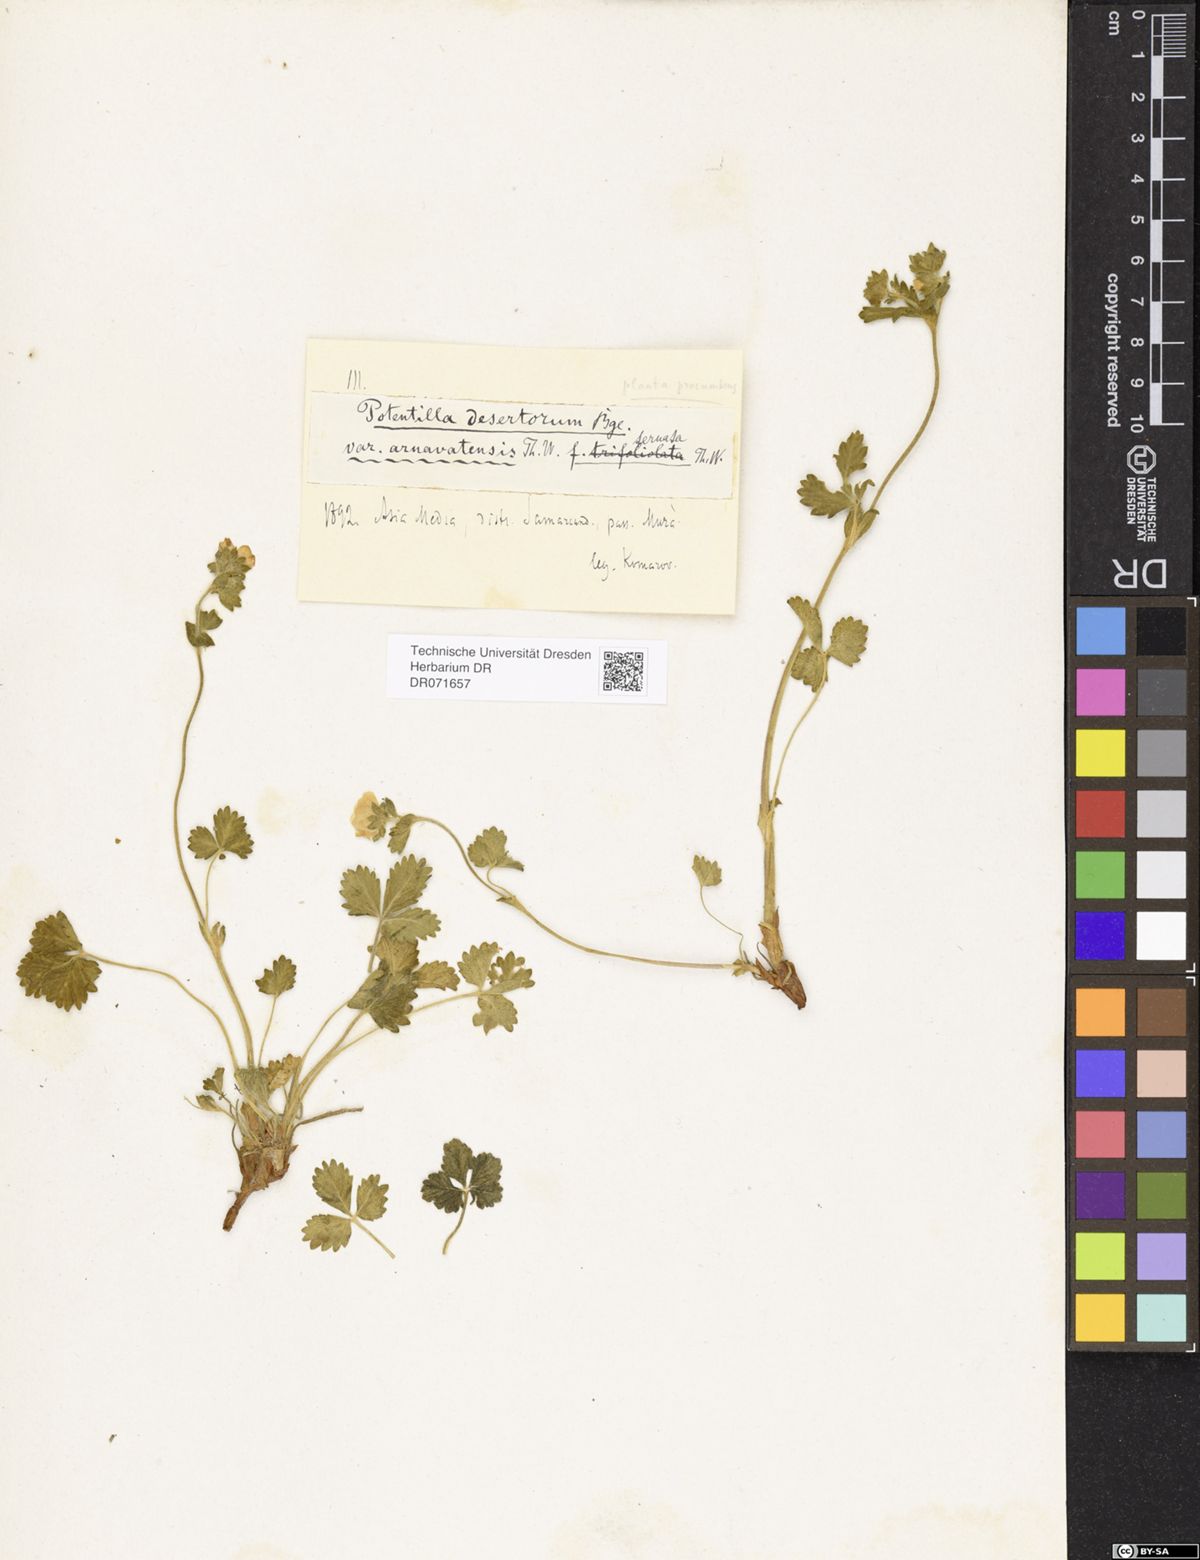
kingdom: Plantae
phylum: Tracheophyta
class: Magnoliopsida
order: Rosales
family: Rosaceae
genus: Potentilla
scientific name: Potentilla desertorum
